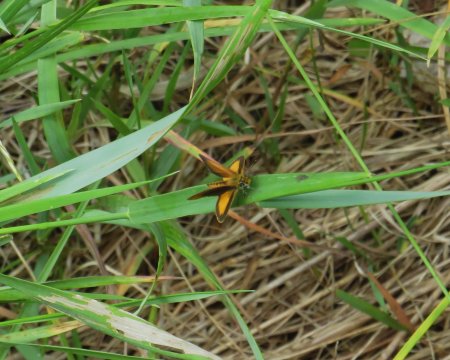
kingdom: Animalia
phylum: Arthropoda
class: Insecta
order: Lepidoptera
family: Hesperiidae
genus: Ancyloxypha
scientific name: Ancyloxypha numitor
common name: Least Skipper
